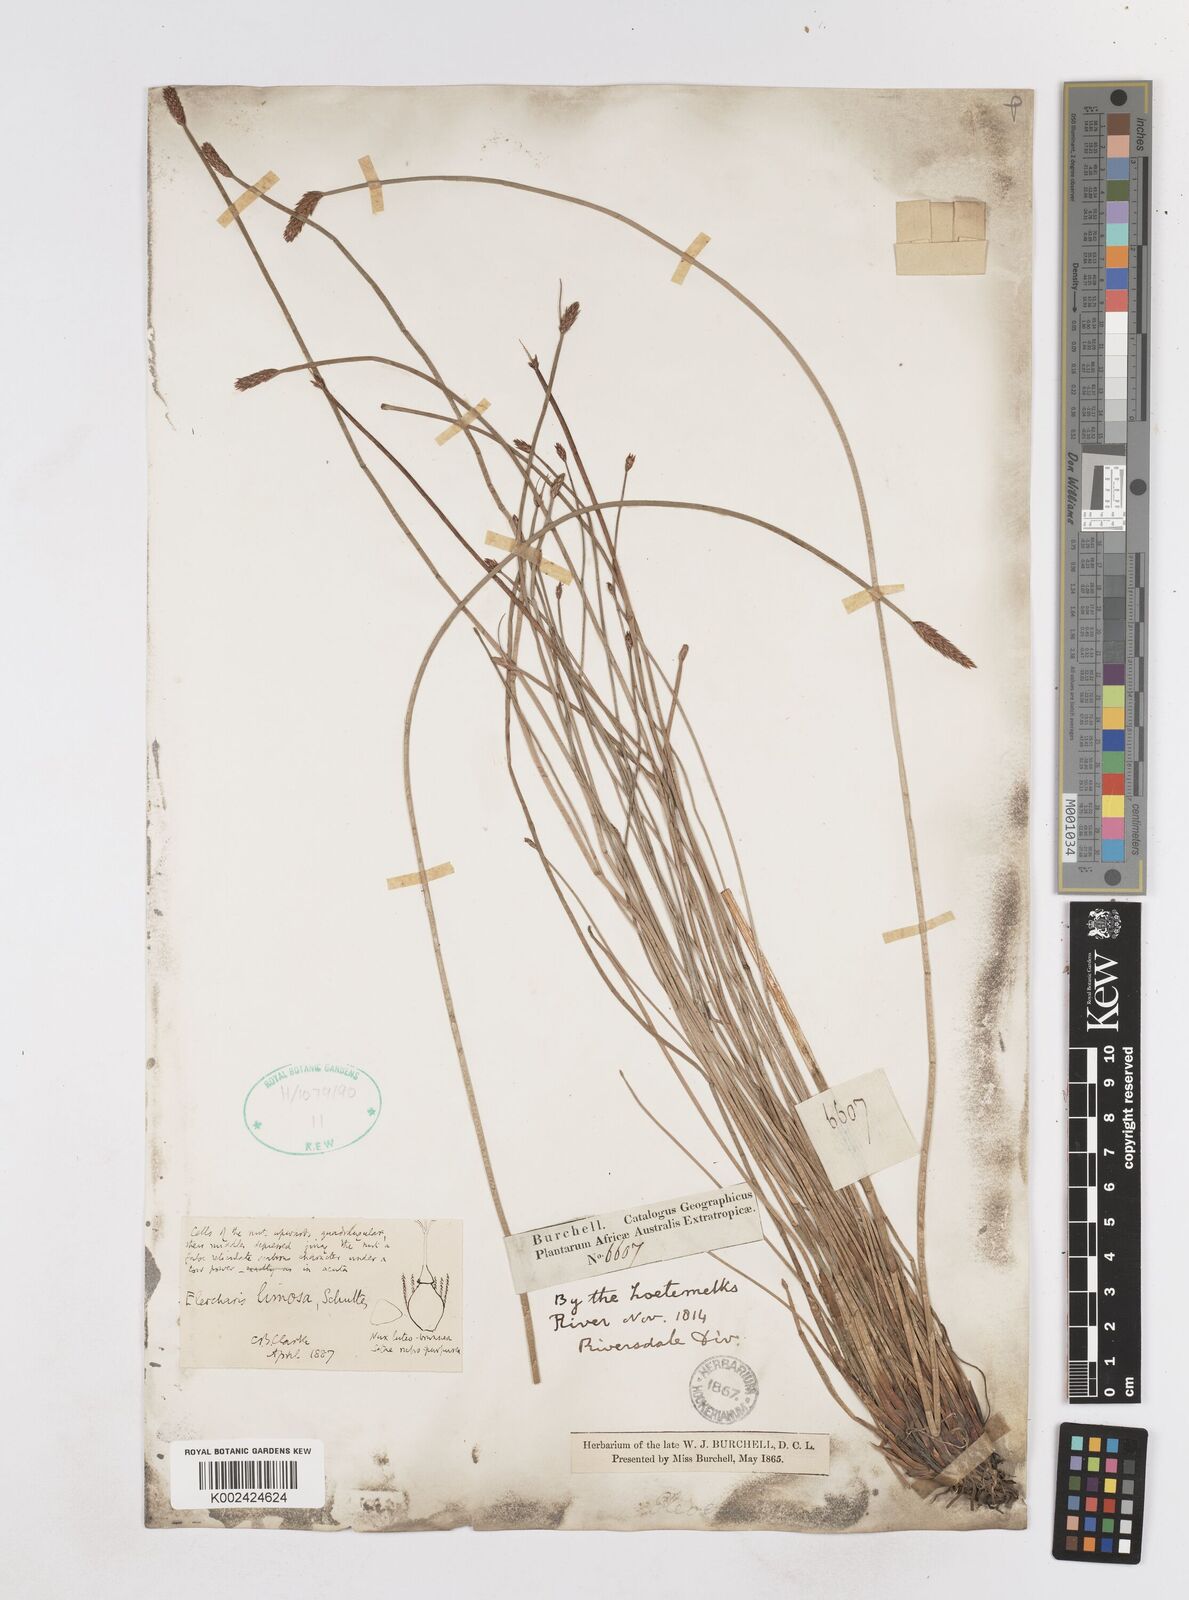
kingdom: Plantae
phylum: Tracheophyta
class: Liliopsida
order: Poales
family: Cyperaceae
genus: Eleocharis
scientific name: Eleocharis limosa
